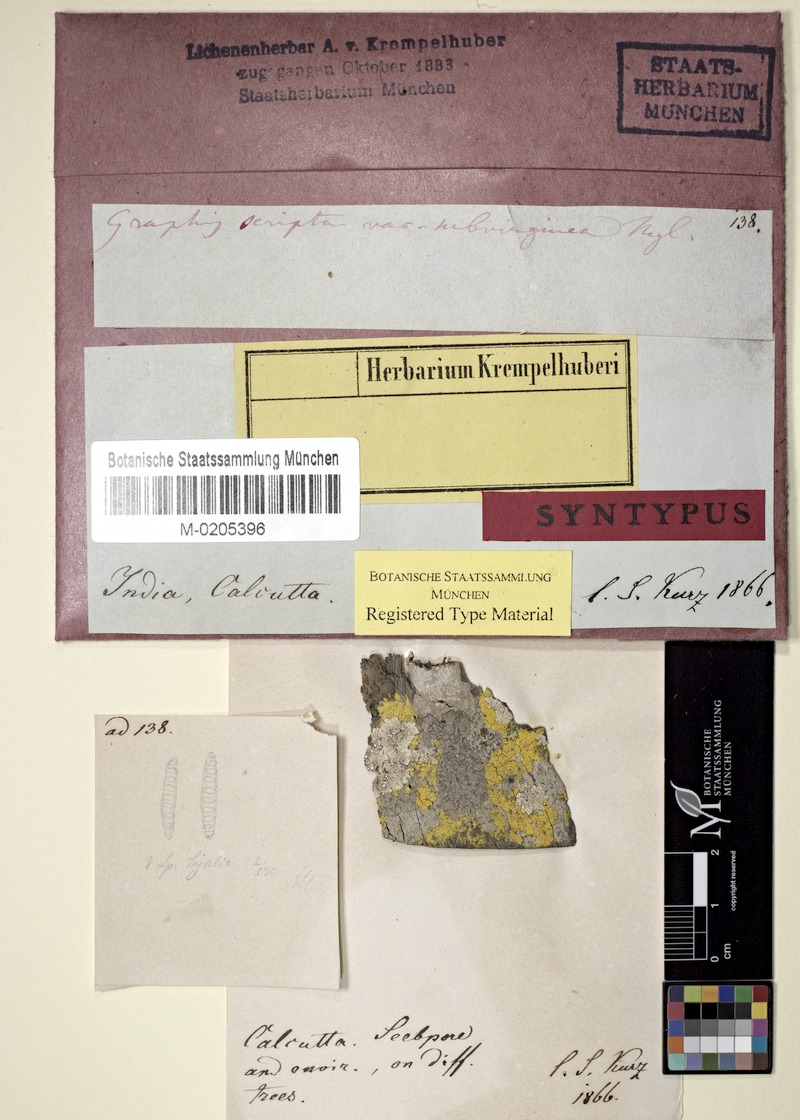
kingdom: Fungi
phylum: Ascomycota
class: Lecanoromycetes
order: Ostropales
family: Graphidaceae
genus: Graphis
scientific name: Graphis scripta
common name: Script lichen
